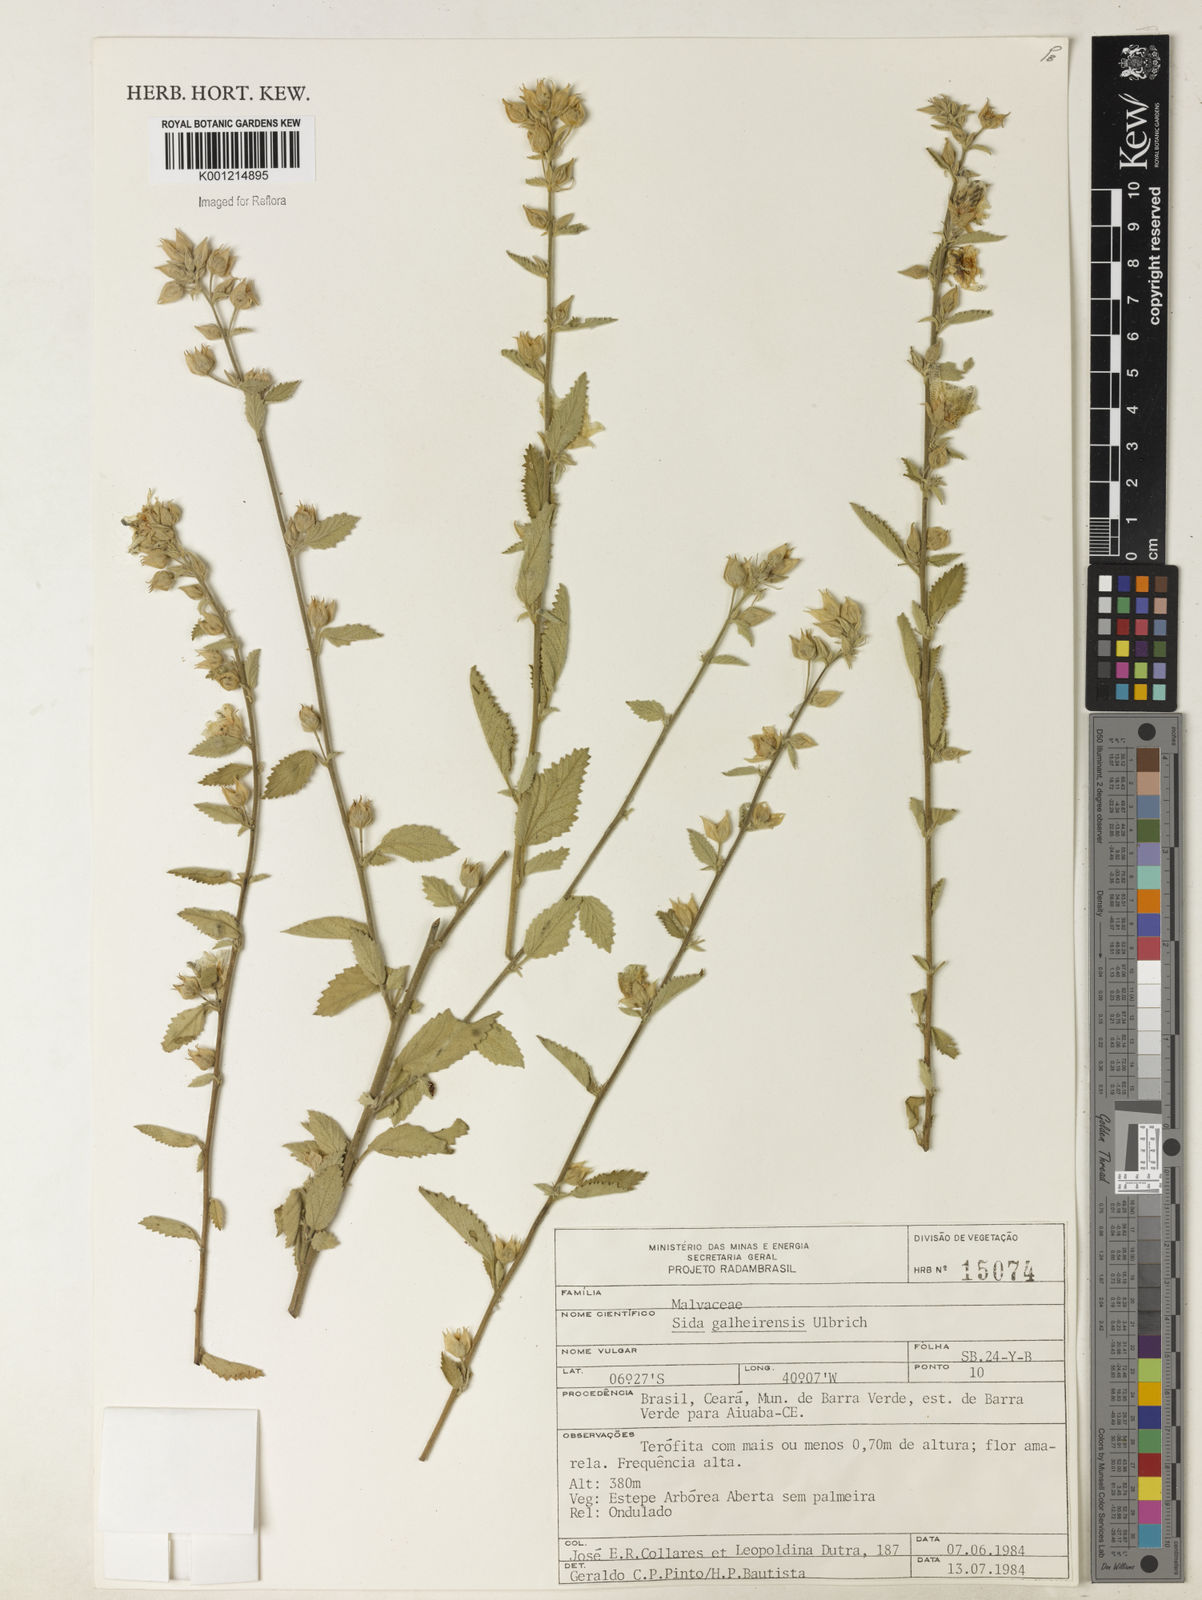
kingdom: Plantae
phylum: Tracheophyta
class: Magnoliopsida
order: Malvales
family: Malvaceae
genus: Sida
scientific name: Sida galheirensis
